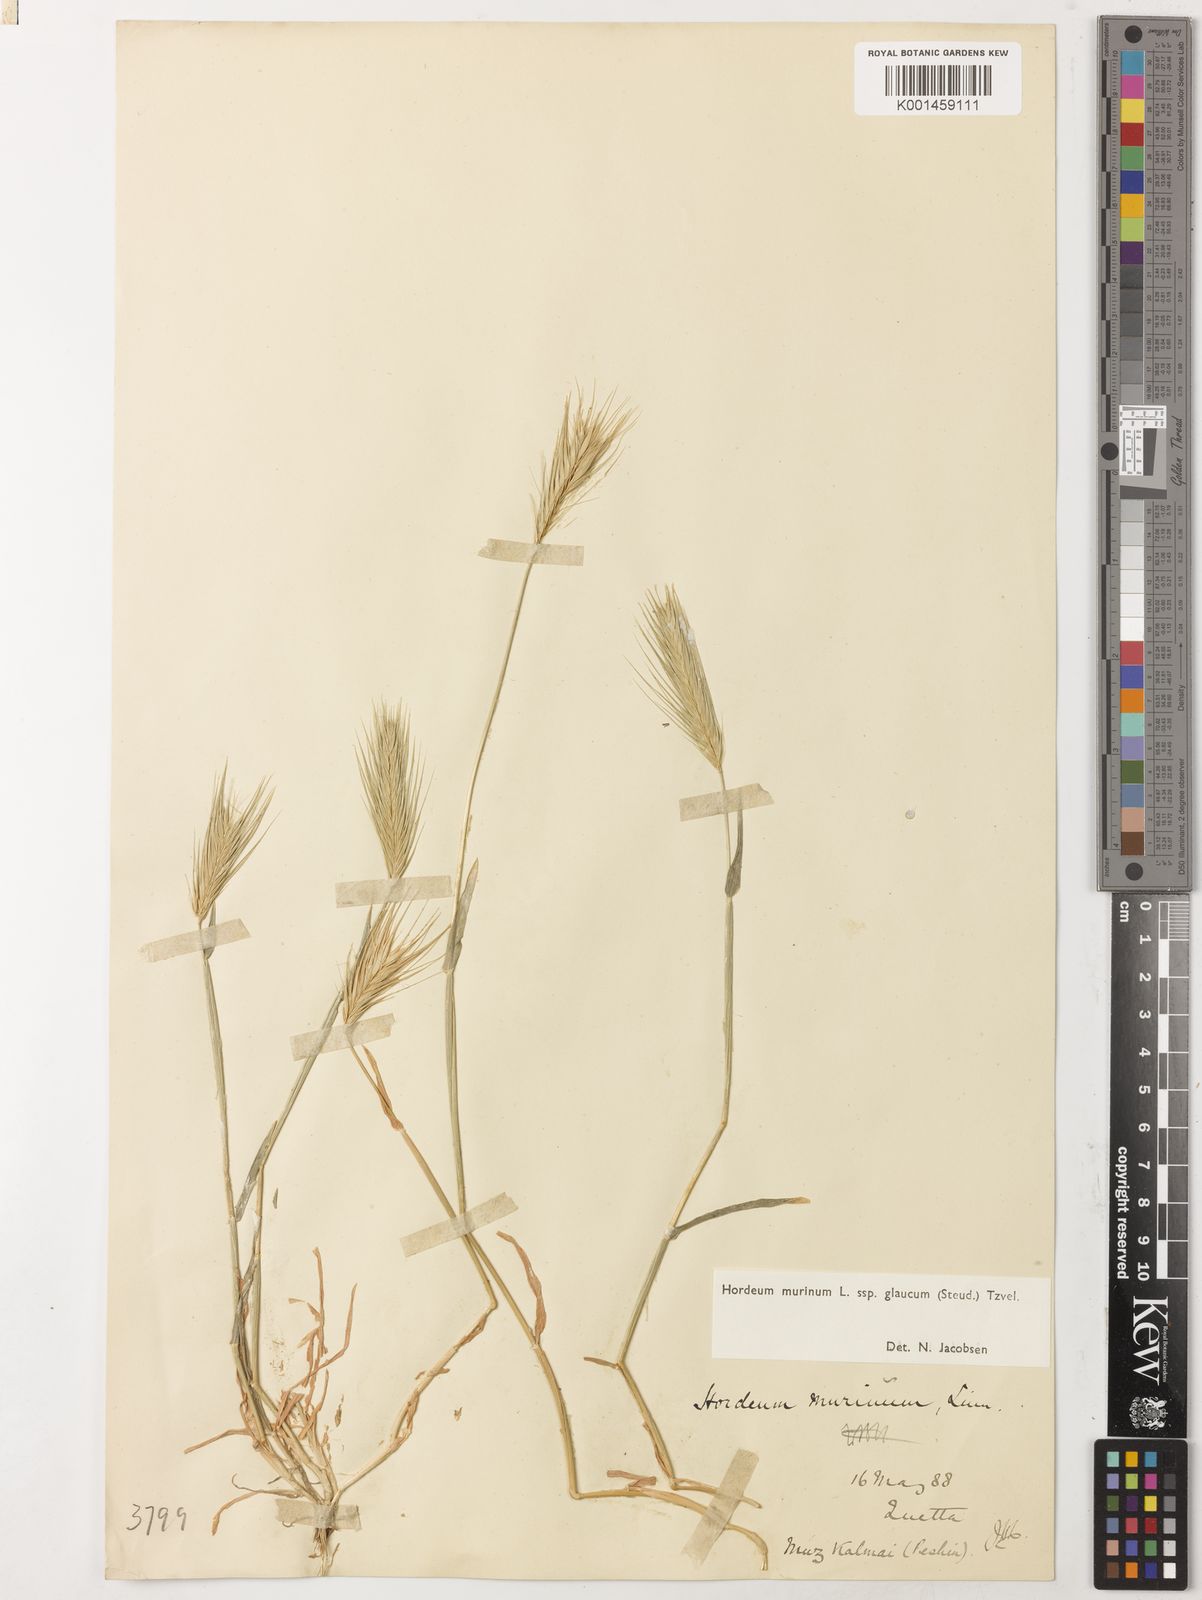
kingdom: Plantae
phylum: Tracheophyta
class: Liliopsida
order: Poales
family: Poaceae
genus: Hordeum
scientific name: Hordeum murinum
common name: Wall barley
